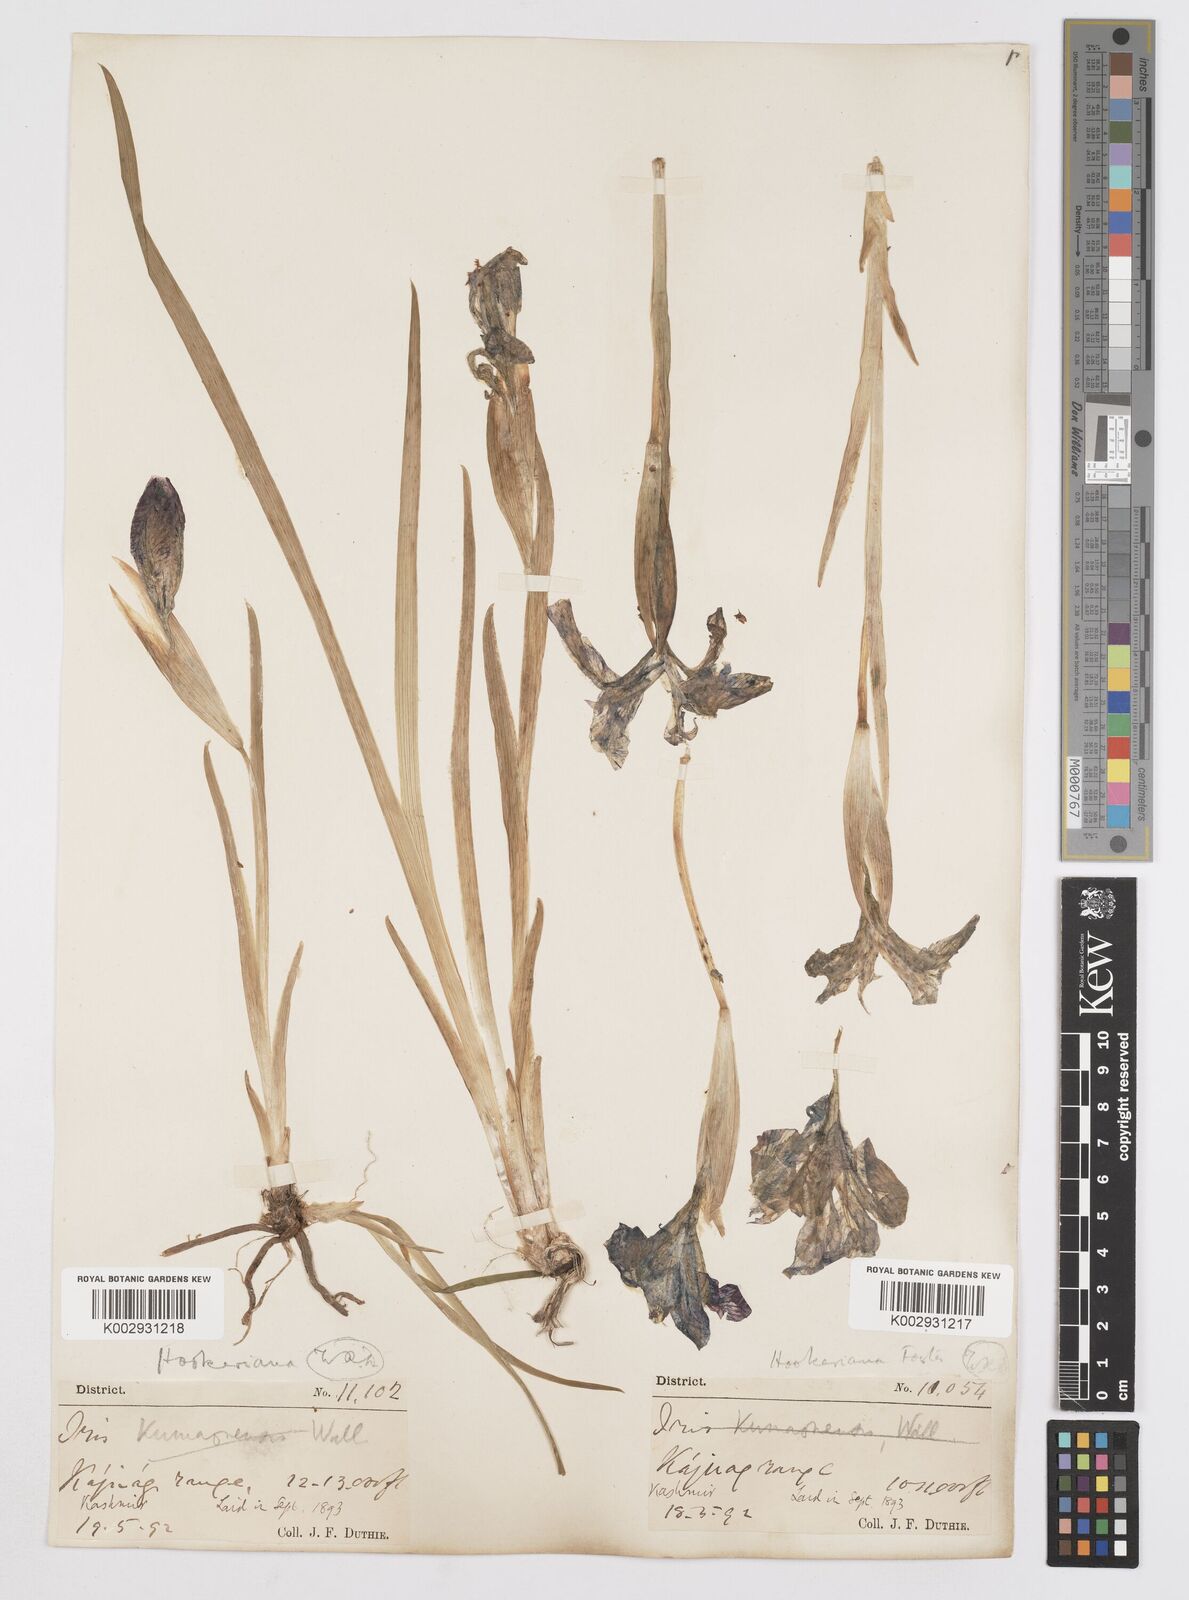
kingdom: Plantae
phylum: Tracheophyta
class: Liliopsida
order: Asparagales
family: Iridaceae
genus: Iris
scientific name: Iris hookeriana
